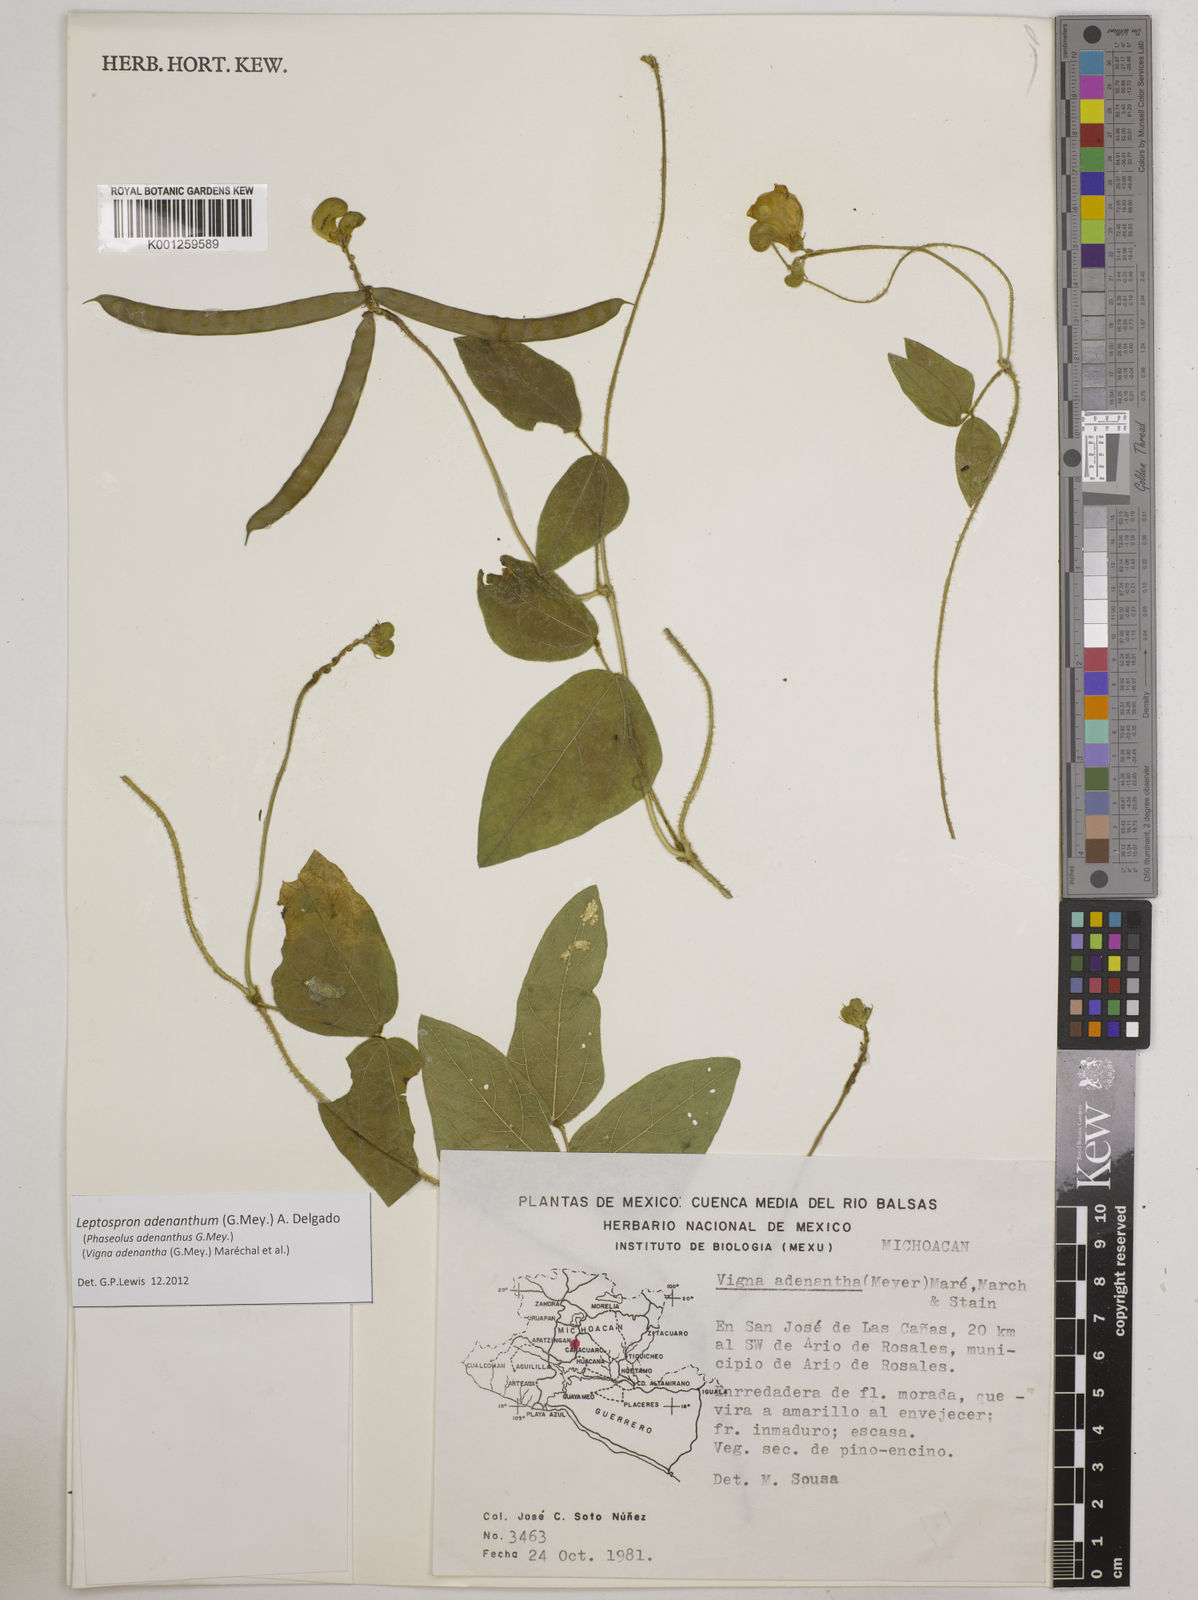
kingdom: Plantae
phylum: Tracheophyta
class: Magnoliopsida
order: Fabales
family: Fabaceae
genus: Leptospron
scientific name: Leptospron adenanthum
